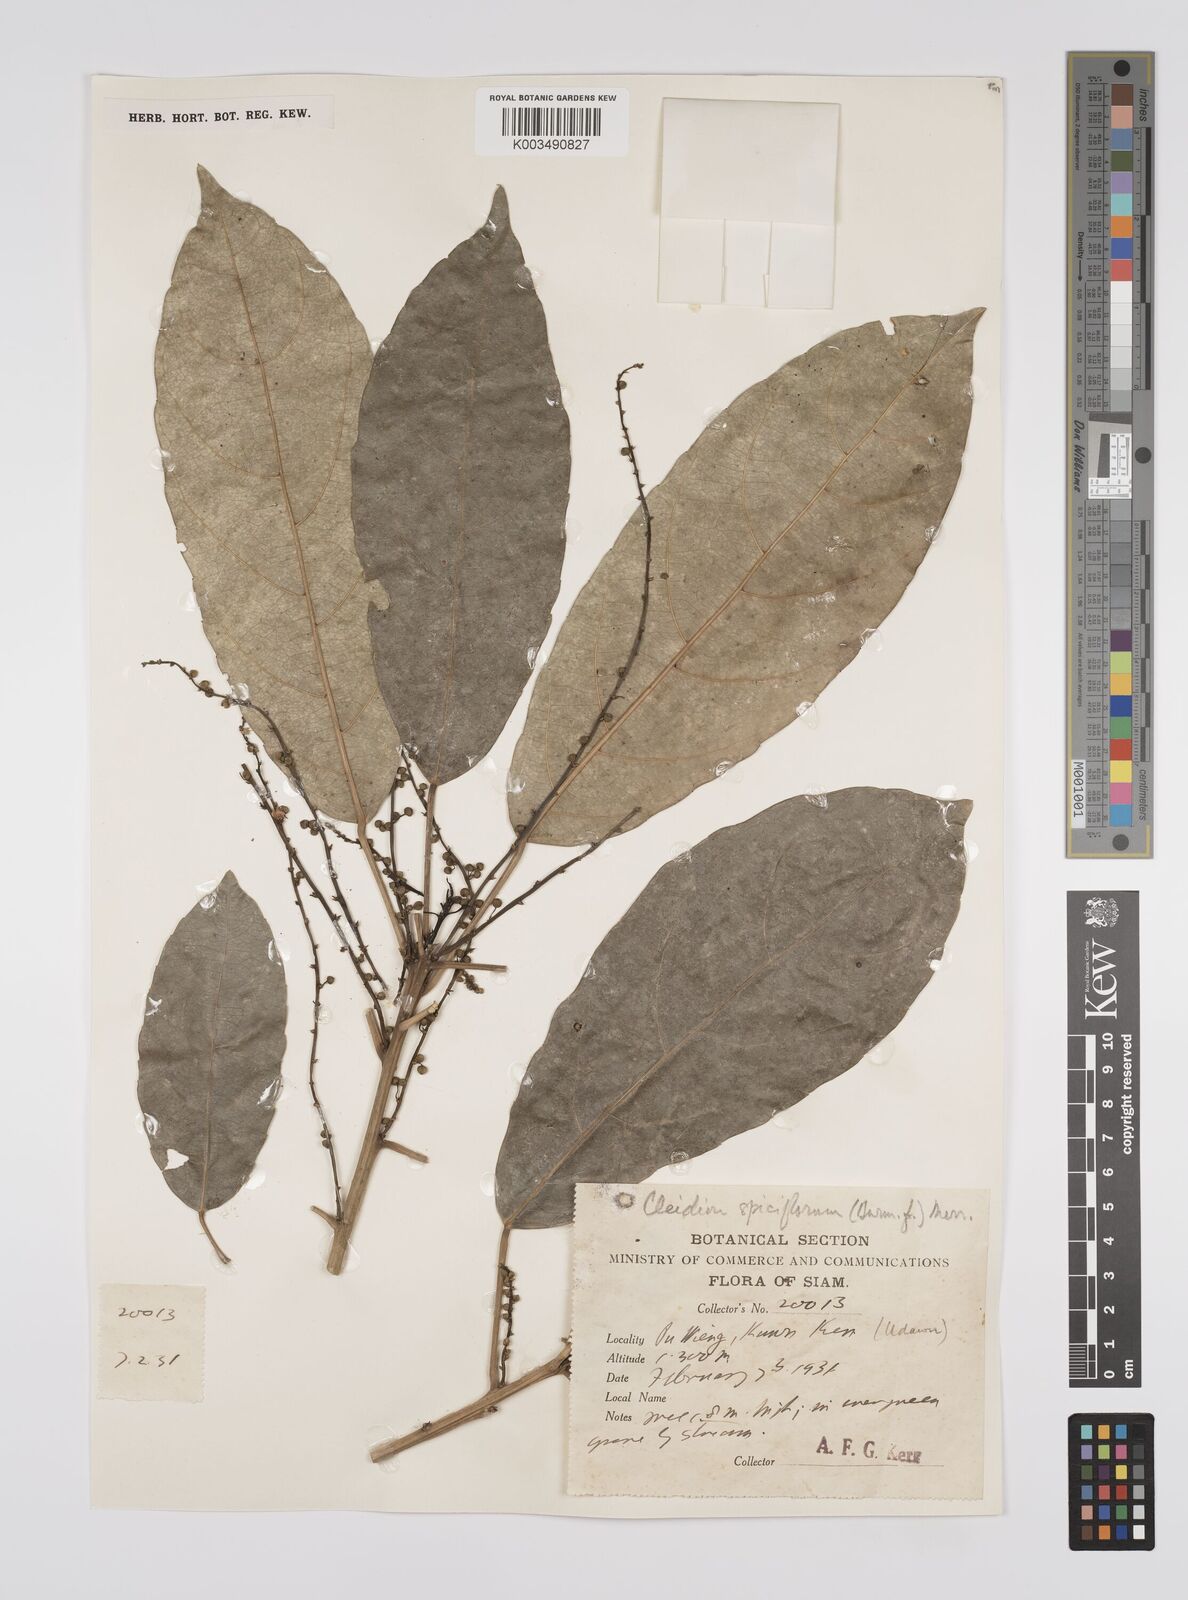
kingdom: Plantae
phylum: Tracheophyta
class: Magnoliopsida
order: Malpighiales
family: Euphorbiaceae
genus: Acalypha
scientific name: Acalypha spiciflora
